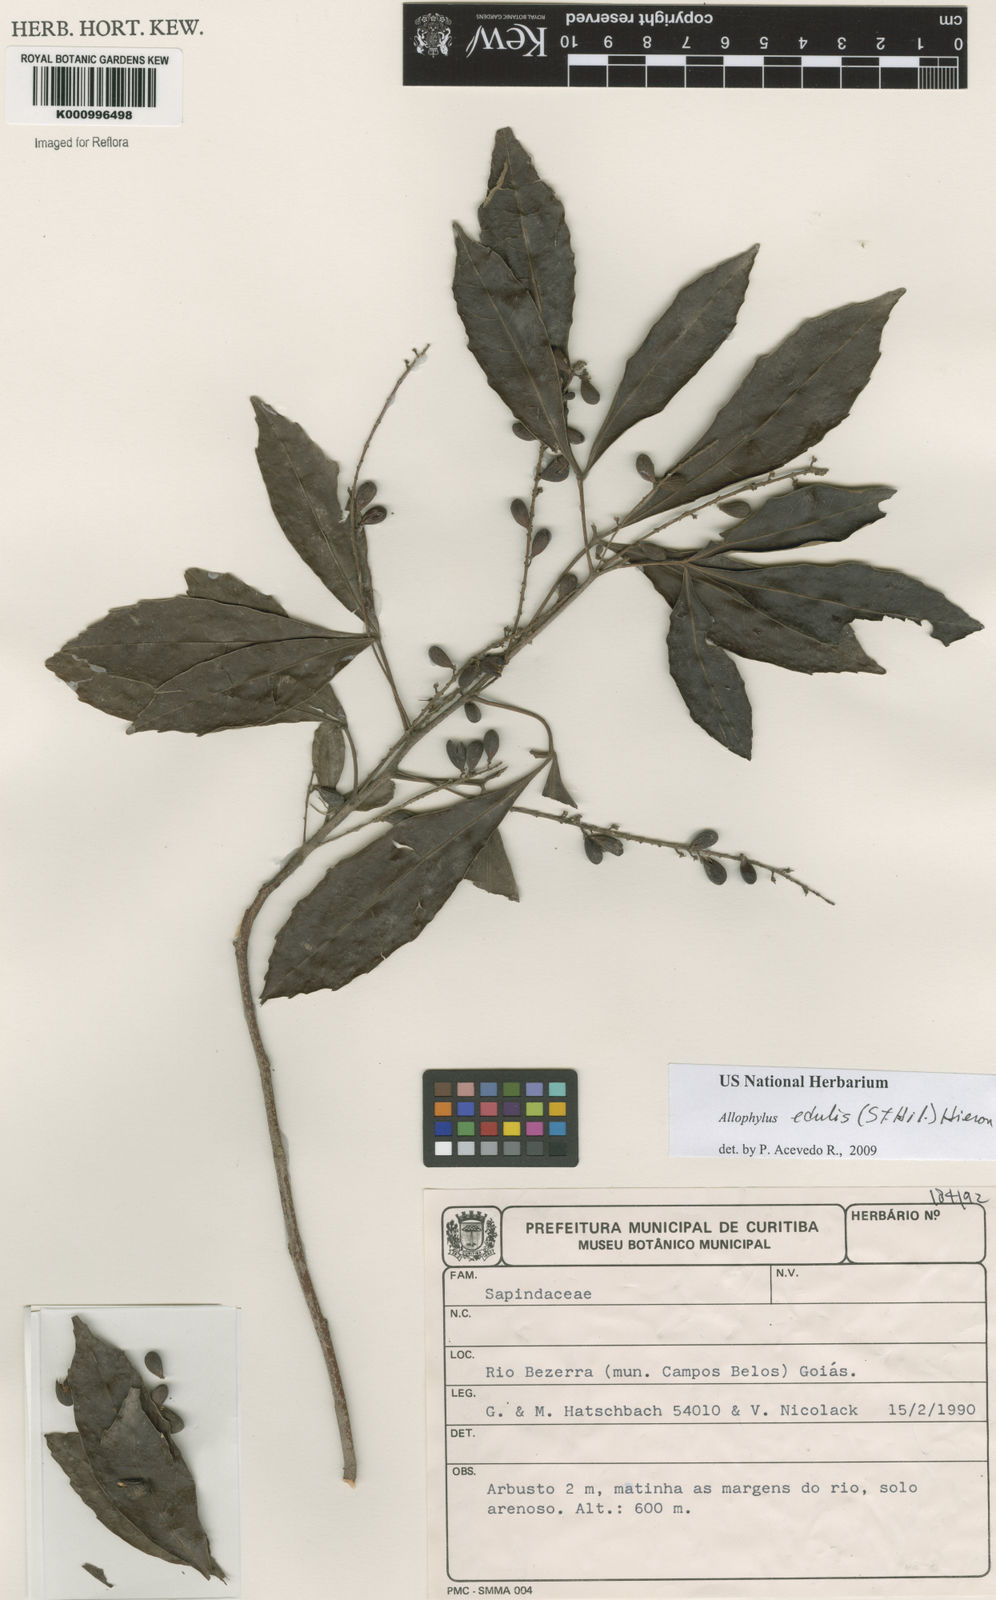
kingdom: Plantae
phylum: Tracheophyta
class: Magnoliopsida
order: Sapindales
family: Sapindaceae
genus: Allophylus
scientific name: Allophylus edulis
